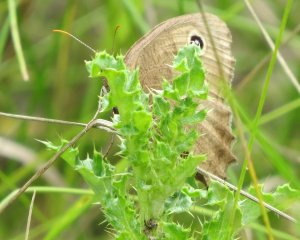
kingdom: Animalia
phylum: Arthropoda
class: Insecta
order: Lepidoptera
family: Nymphalidae
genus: Cercyonis
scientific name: Cercyonis pegala
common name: Common Wood-Nymph
